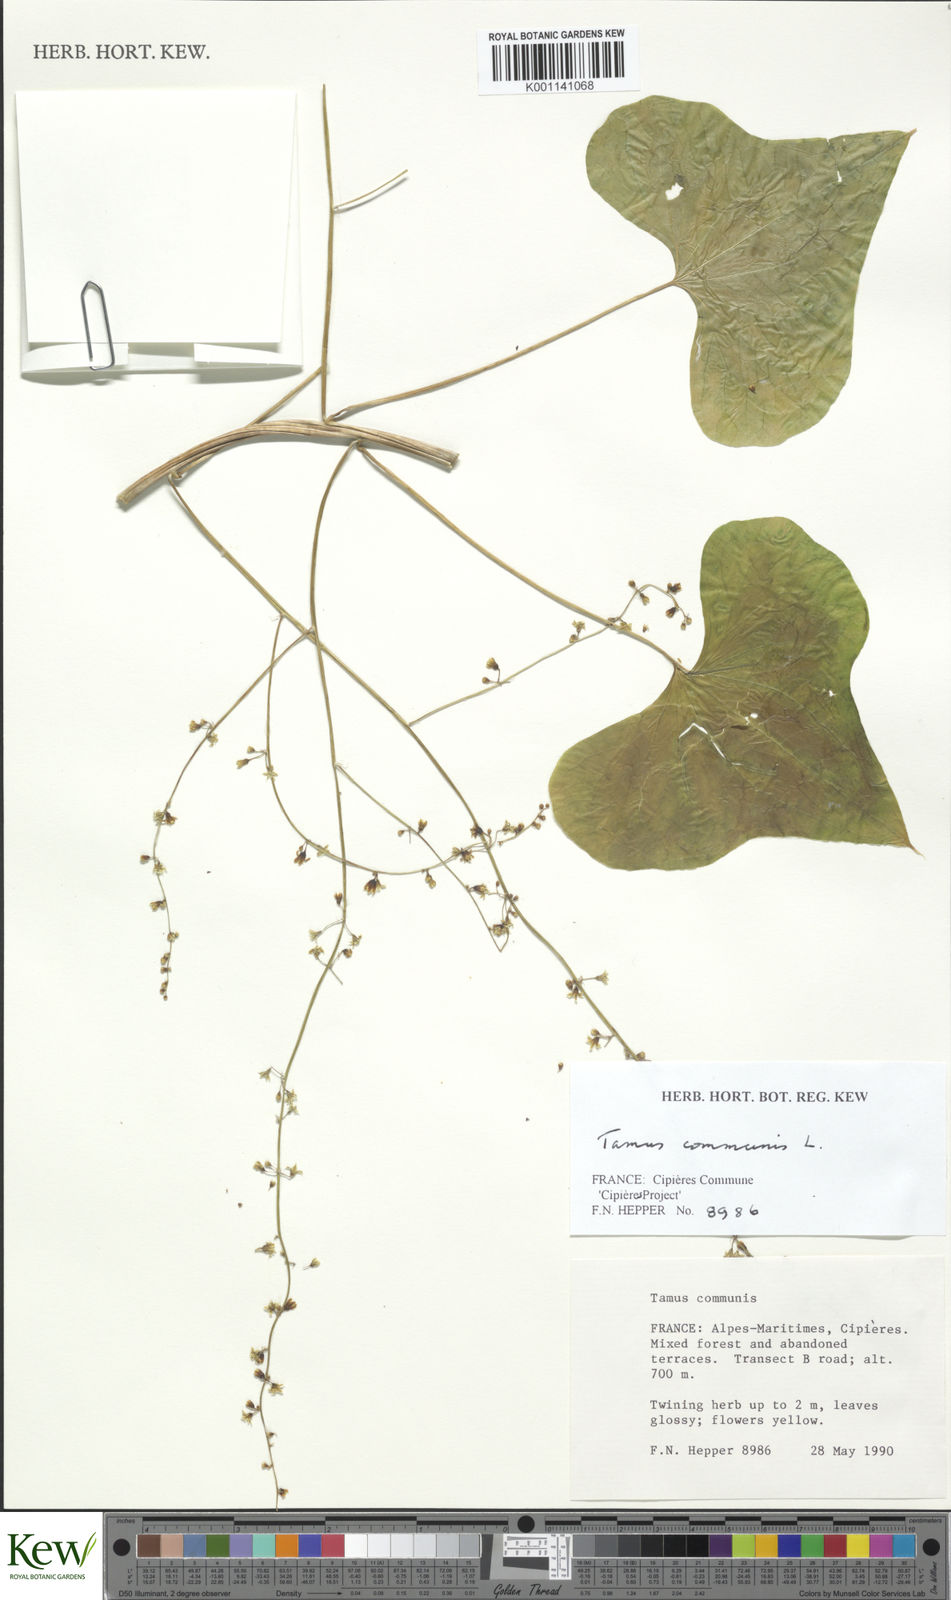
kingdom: Plantae
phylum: Tracheophyta
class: Liliopsida
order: Dioscoreales
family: Dioscoreaceae
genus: Dioscorea
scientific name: Dioscorea communis
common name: Black-bindweed
